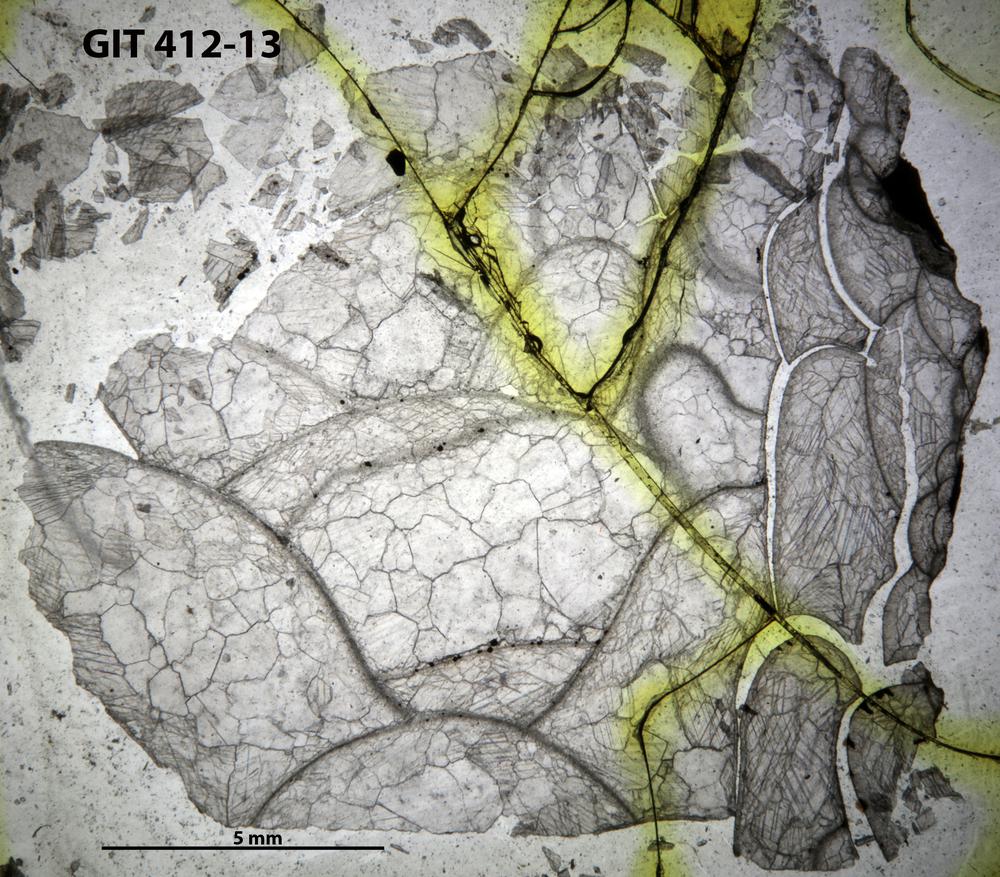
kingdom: Animalia
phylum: Cnidaria
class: Anthozoa
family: Cyathophyllidae
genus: Cystiphyllum
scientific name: Cystiphyllum
